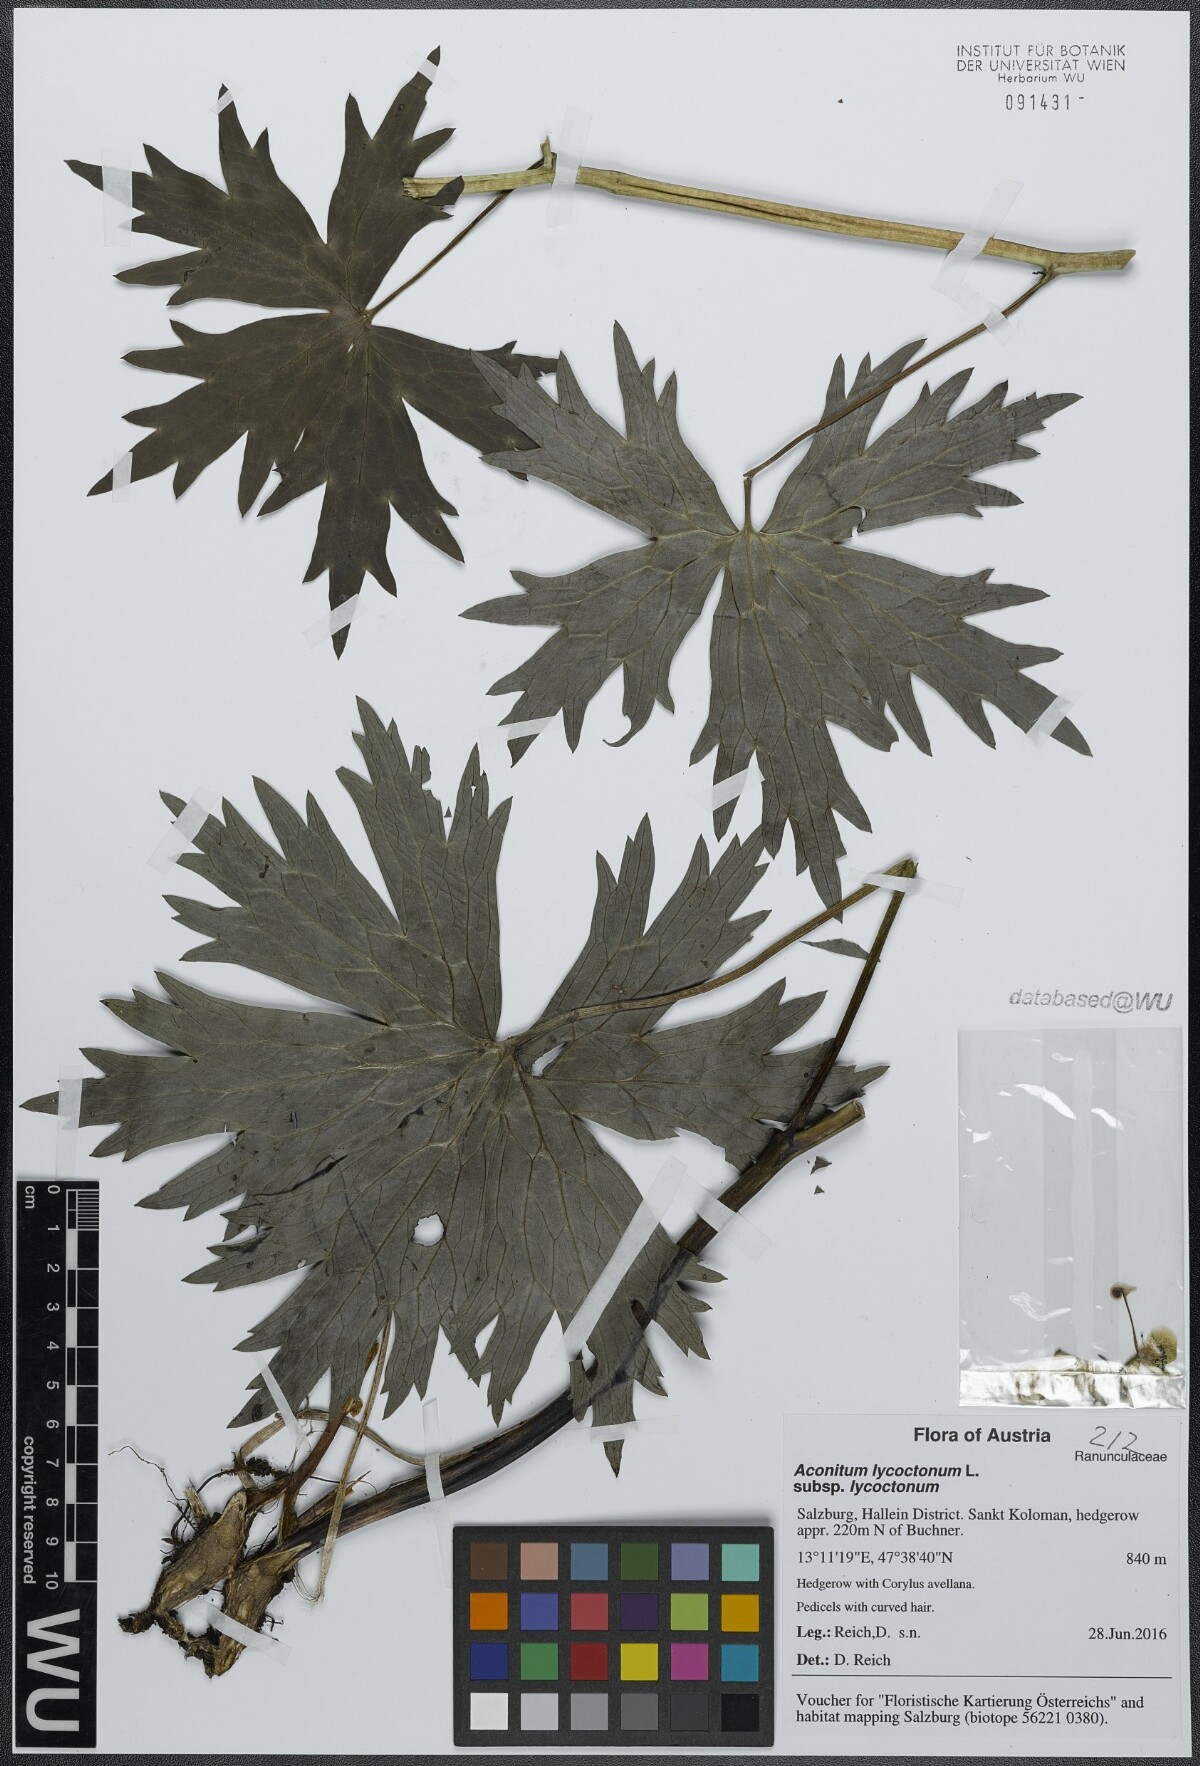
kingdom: Plantae
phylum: Tracheophyta
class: Magnoliopsida
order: Ranunculales
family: Ranunculaceae
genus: Aconitum
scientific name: Aconitum lycoctonum
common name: Wolf's-bane
